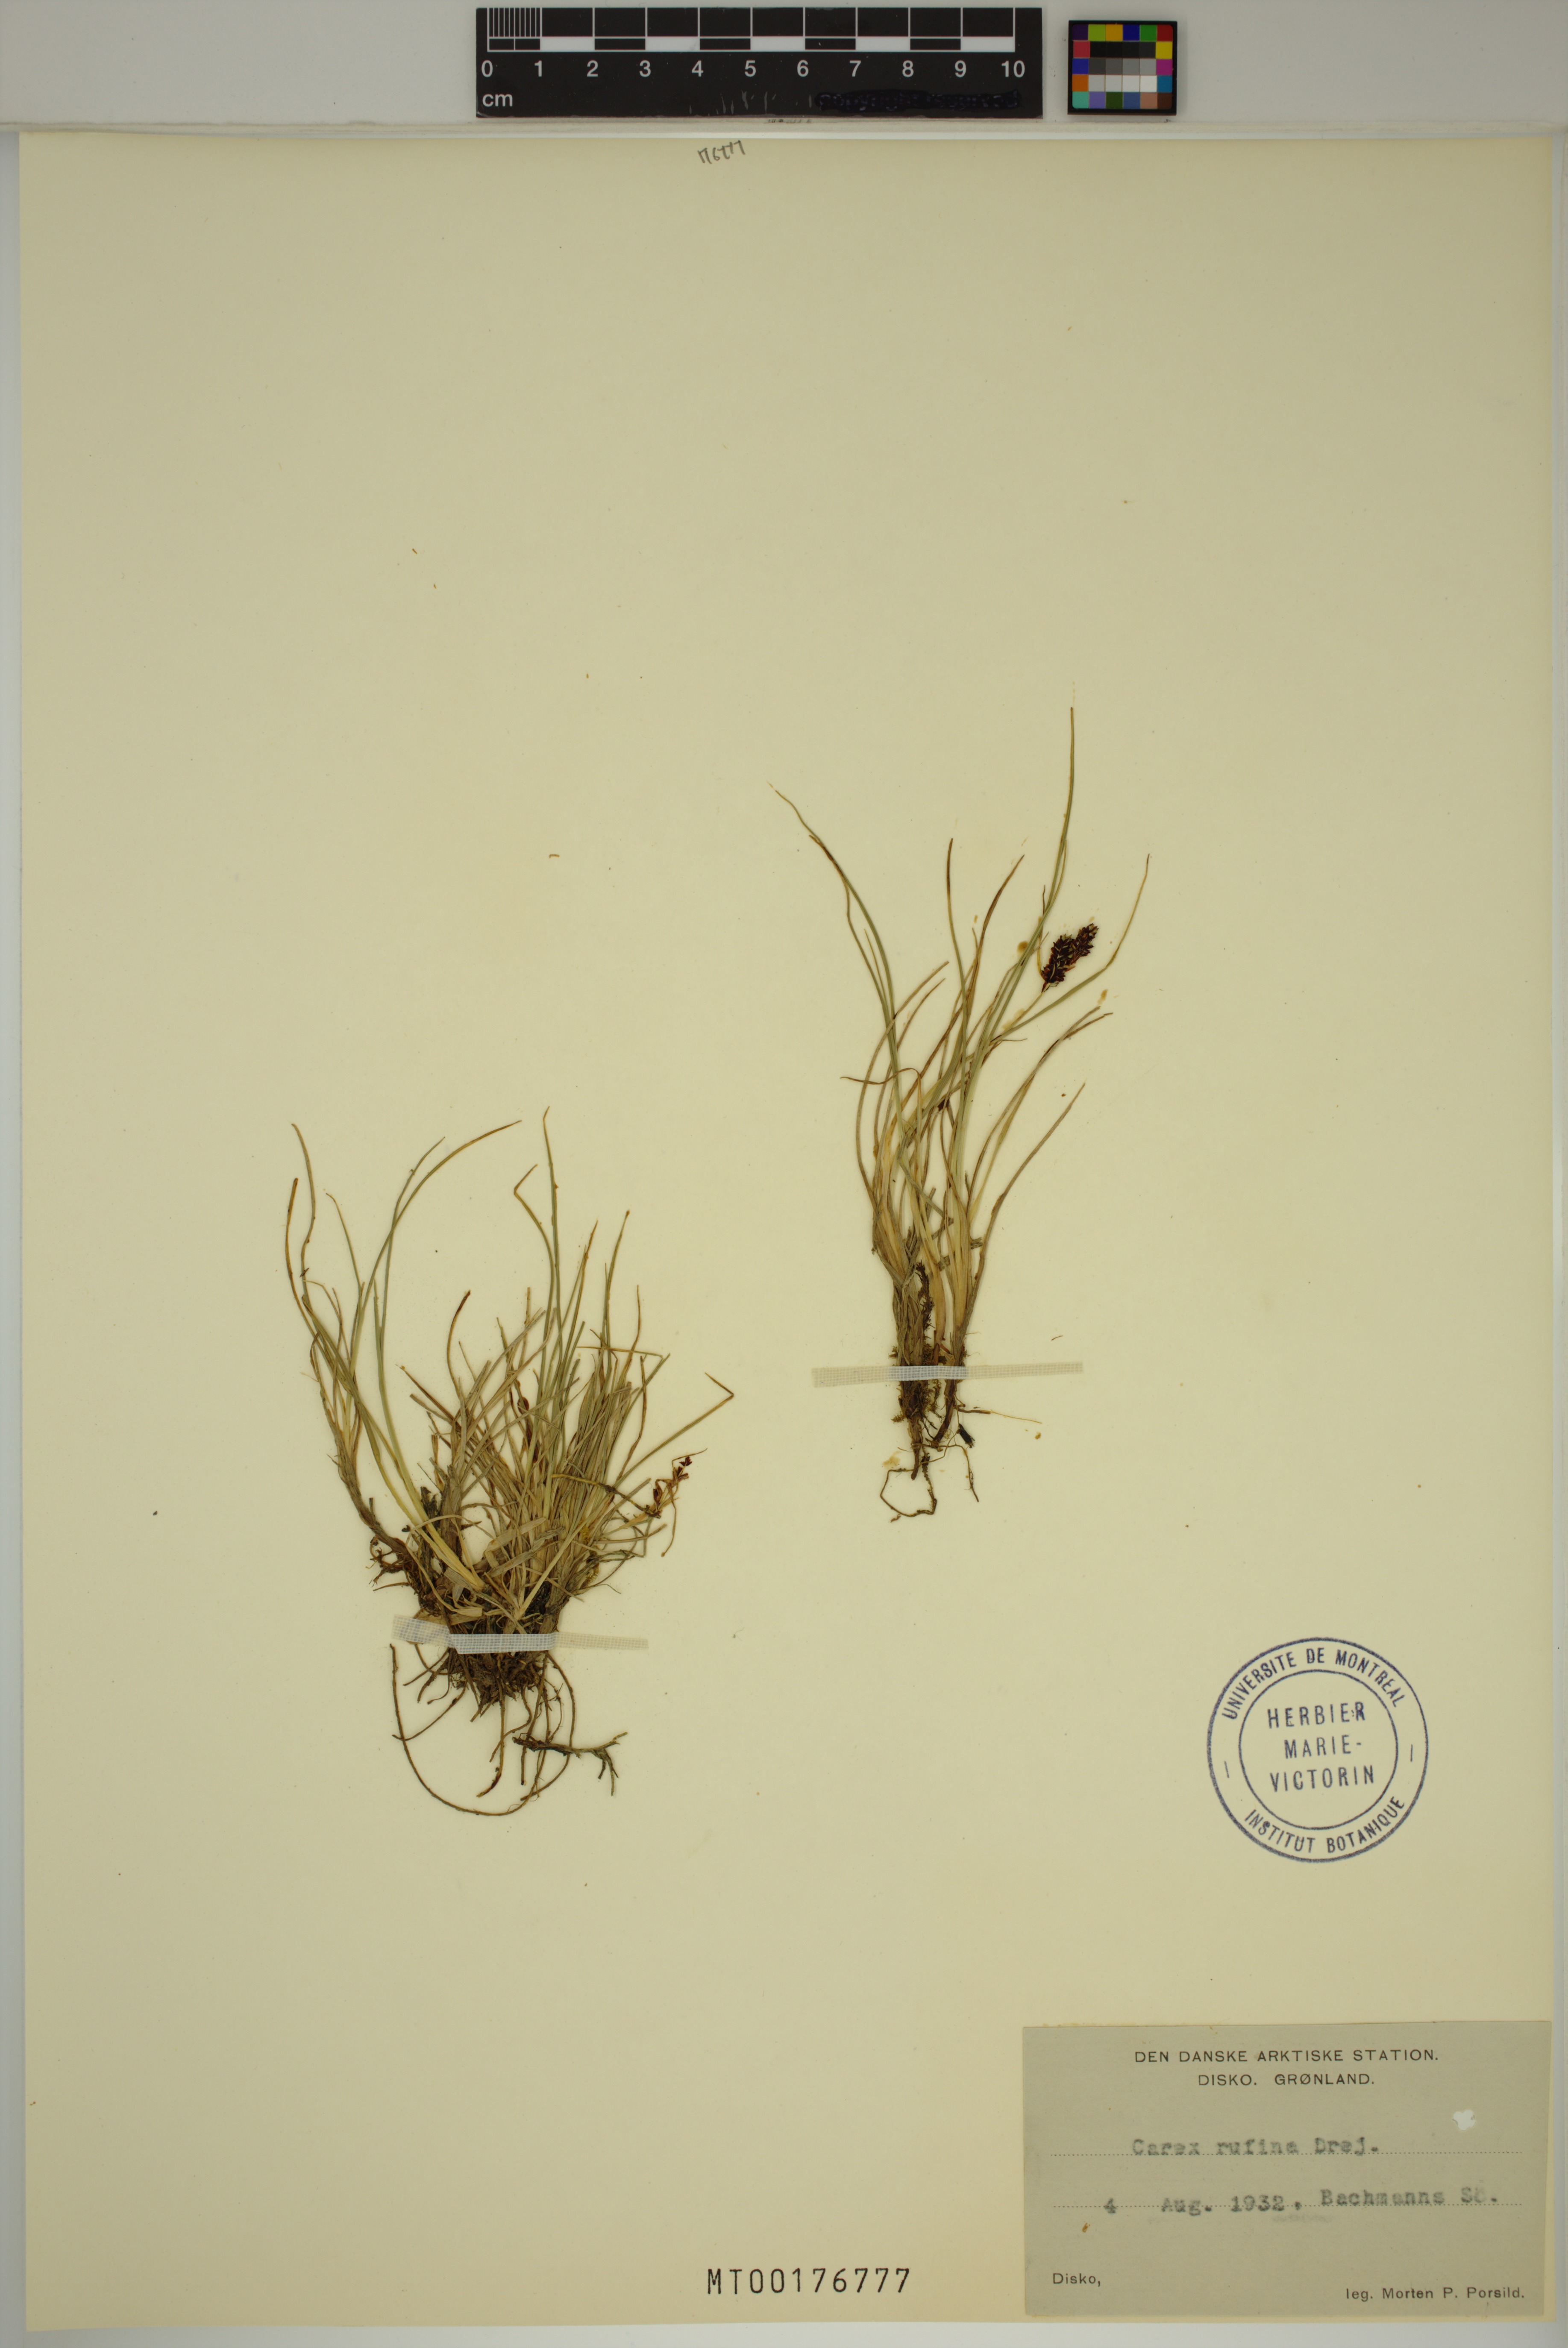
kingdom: Plantae
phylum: Tracheophyta
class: Liliopsida
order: Poales
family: Cyperaceae
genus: Carex
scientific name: Carex rufina
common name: Reddish sedge
